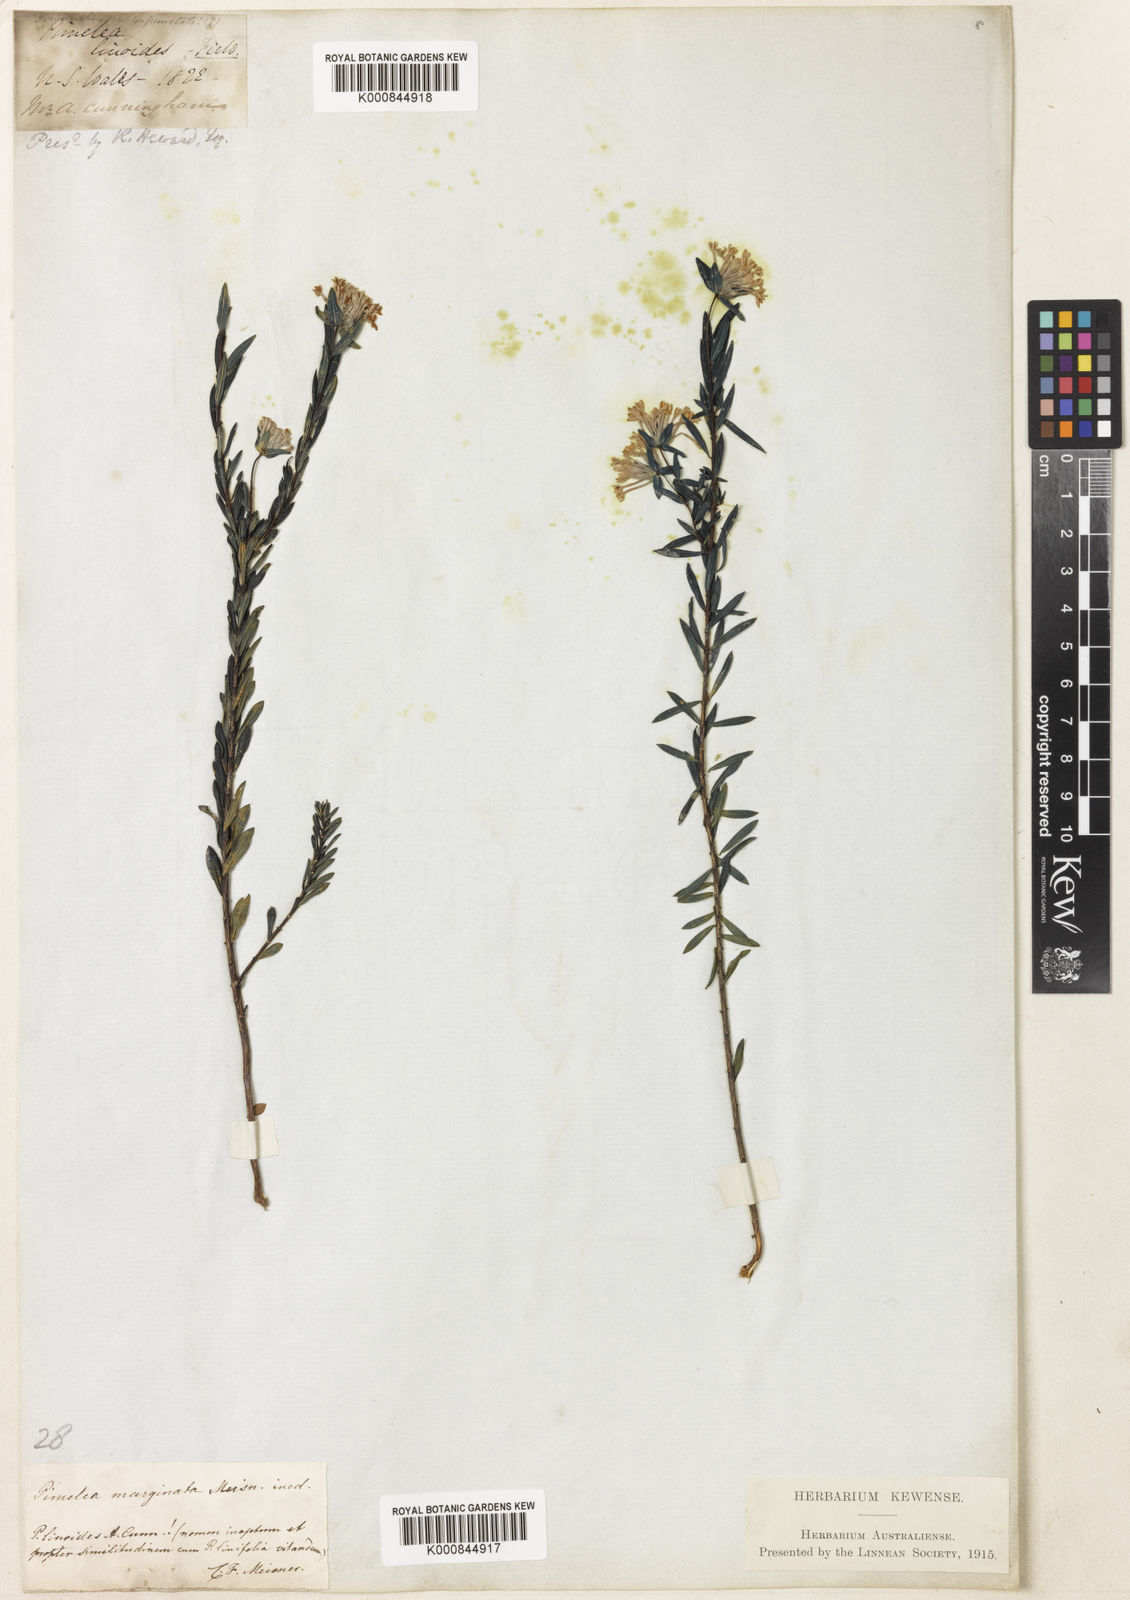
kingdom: Plantae
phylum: Tracheophyta
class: Magnoliopsida
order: Malvales
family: Thymelaeaceae
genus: Pimelea
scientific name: Pimelea linifolia
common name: Queen-of-the-bush
